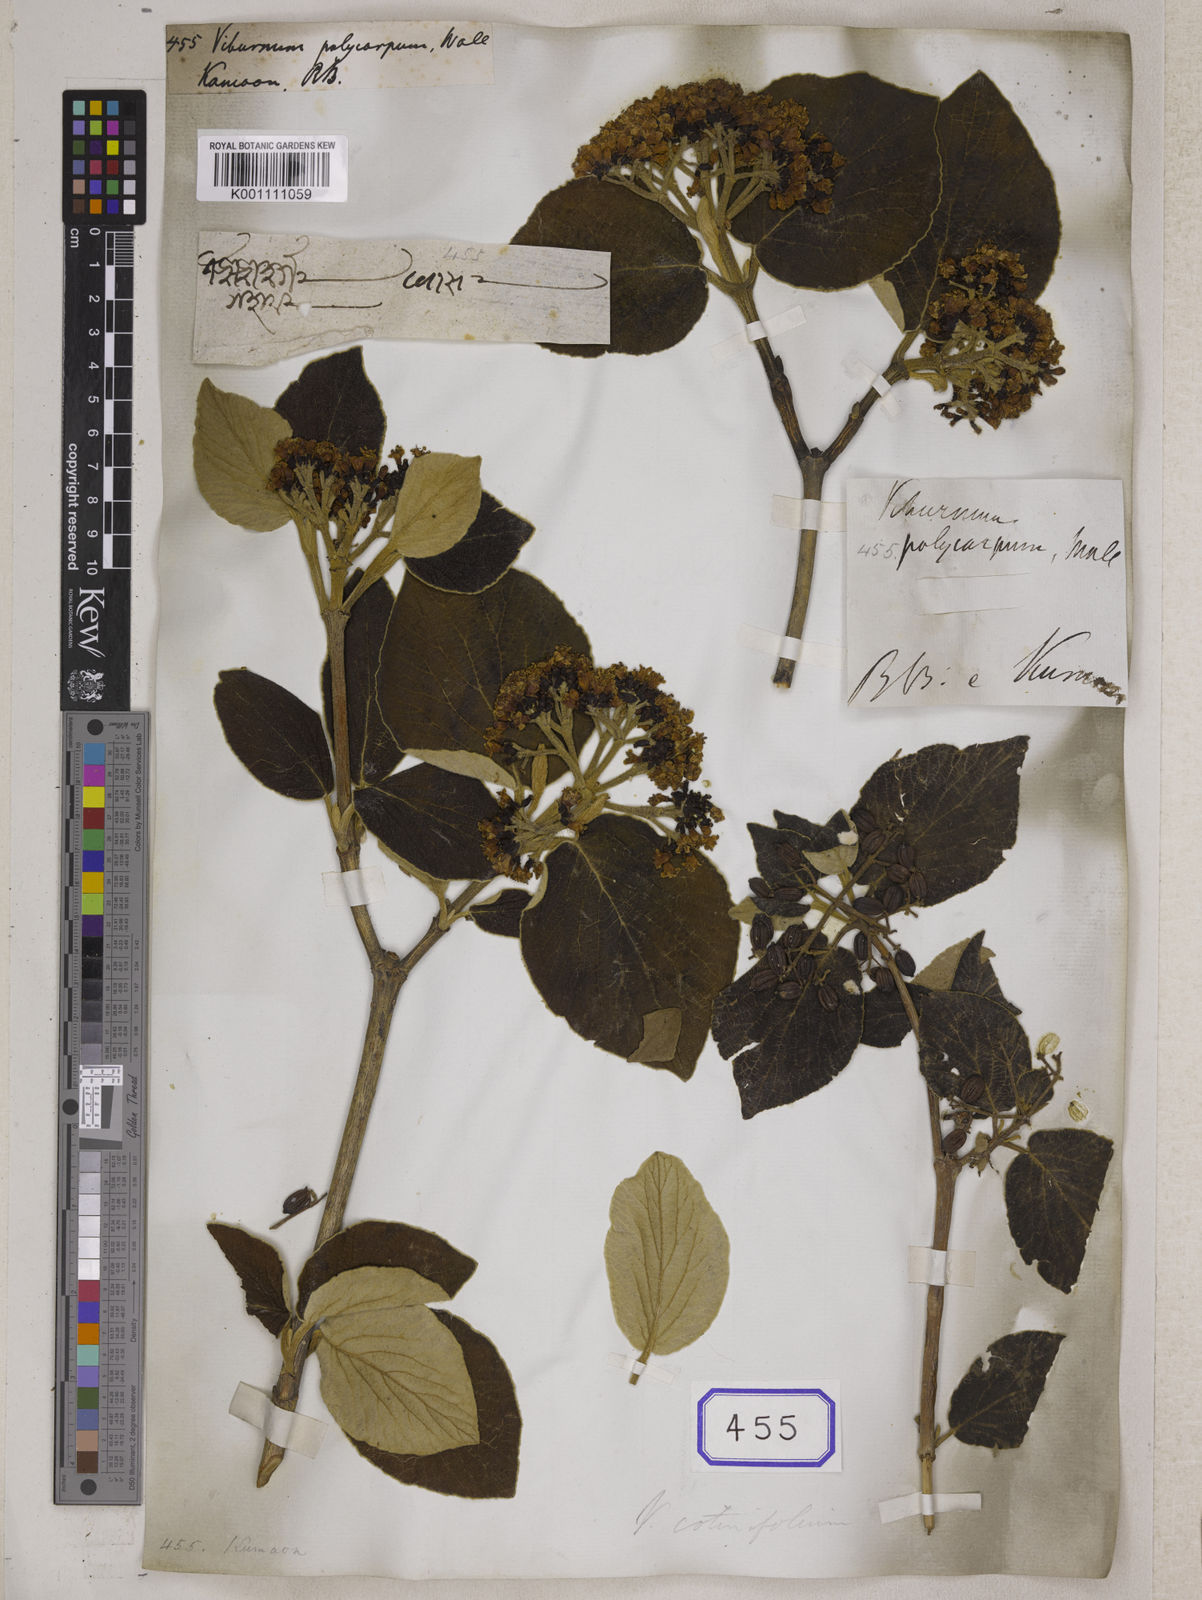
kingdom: Plantae
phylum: Tracheophyta
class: Magnoliopsida
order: Dipsacales
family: Viburnaceae
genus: Viburnum
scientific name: Viburnum
